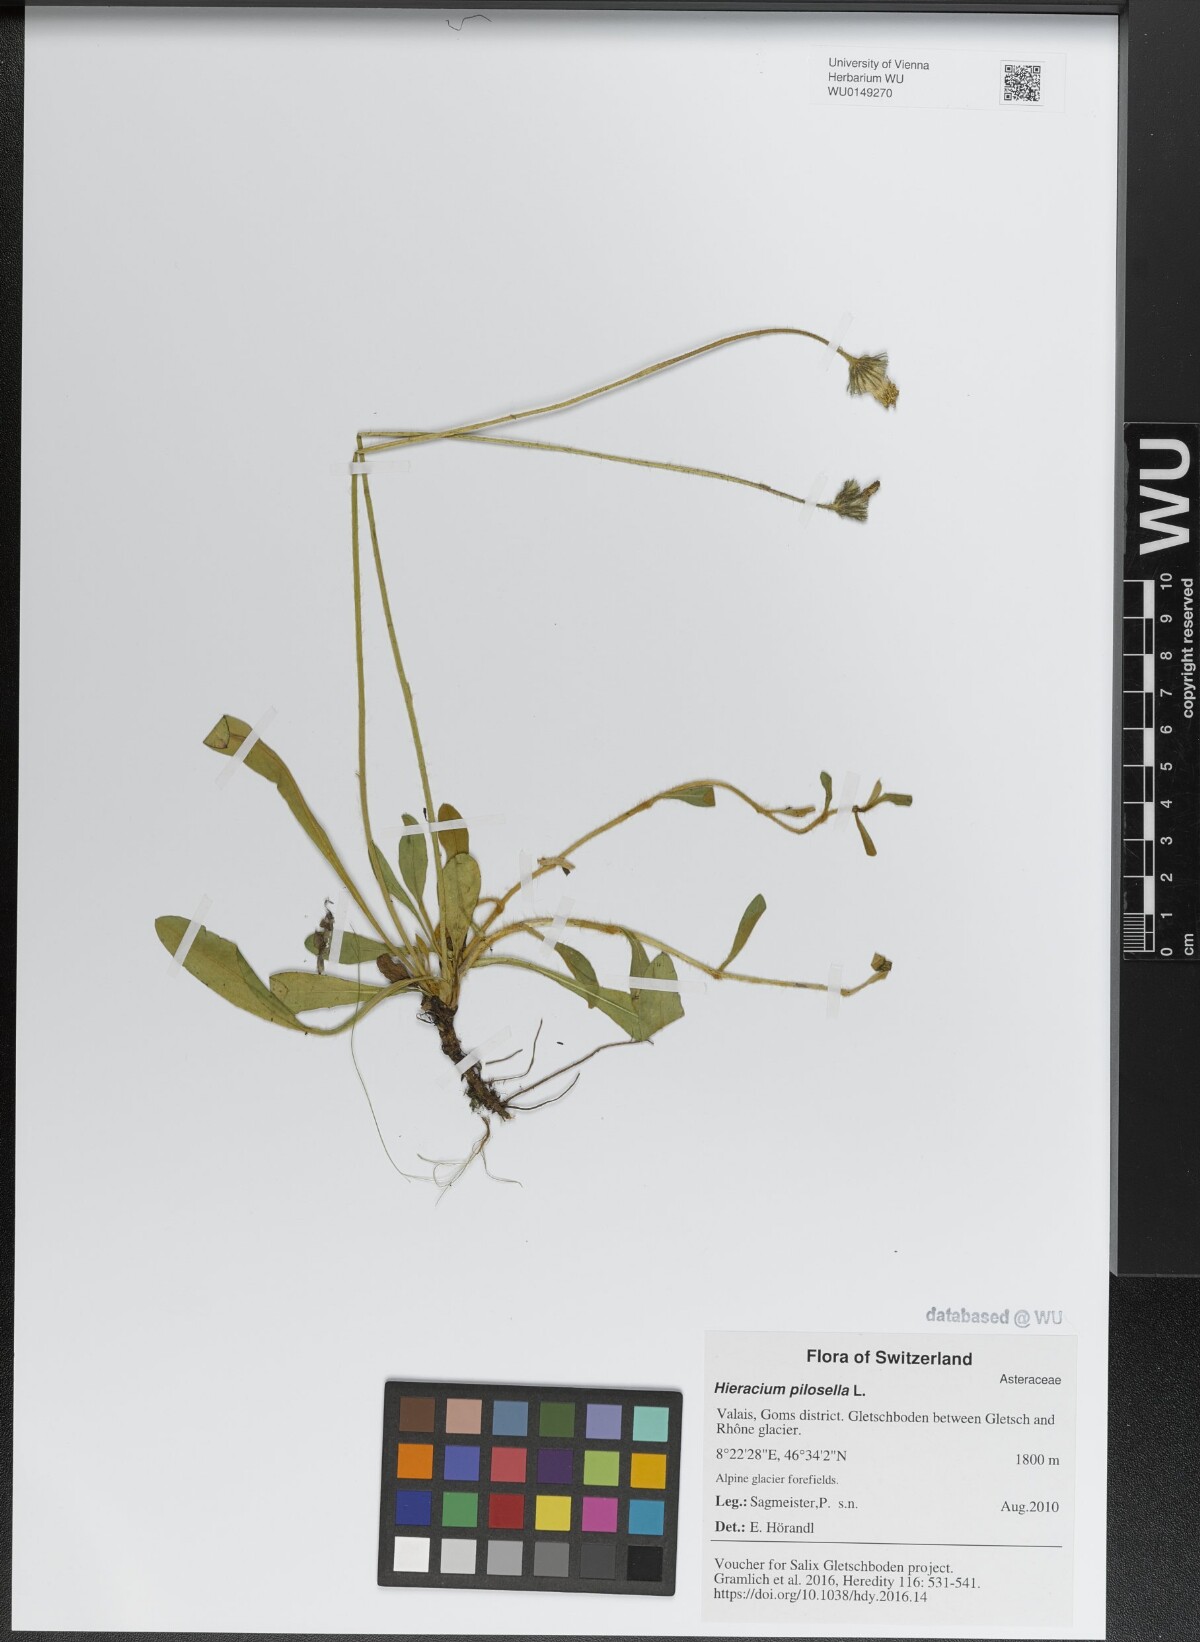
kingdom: Plantae
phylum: Tracheophyta
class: Magnoliopsida
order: Asterales
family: Asteraceae
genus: Pilosella
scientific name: Pilosella officinarum
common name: Mouse-ear hawkweed
